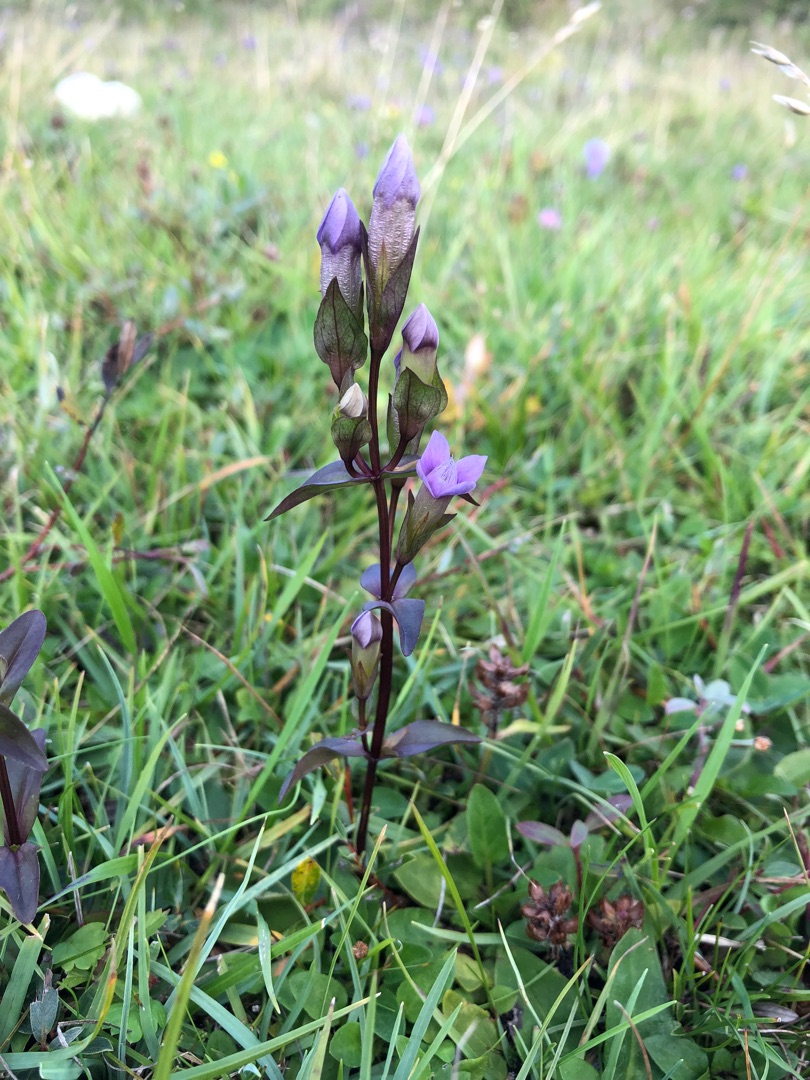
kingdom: Plantae
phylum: Tracheophyta
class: Magnoliopsida
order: Gentianales
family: Gentianaceae
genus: Gentianella
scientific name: Gentianella campestris
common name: Baltisk ensian
